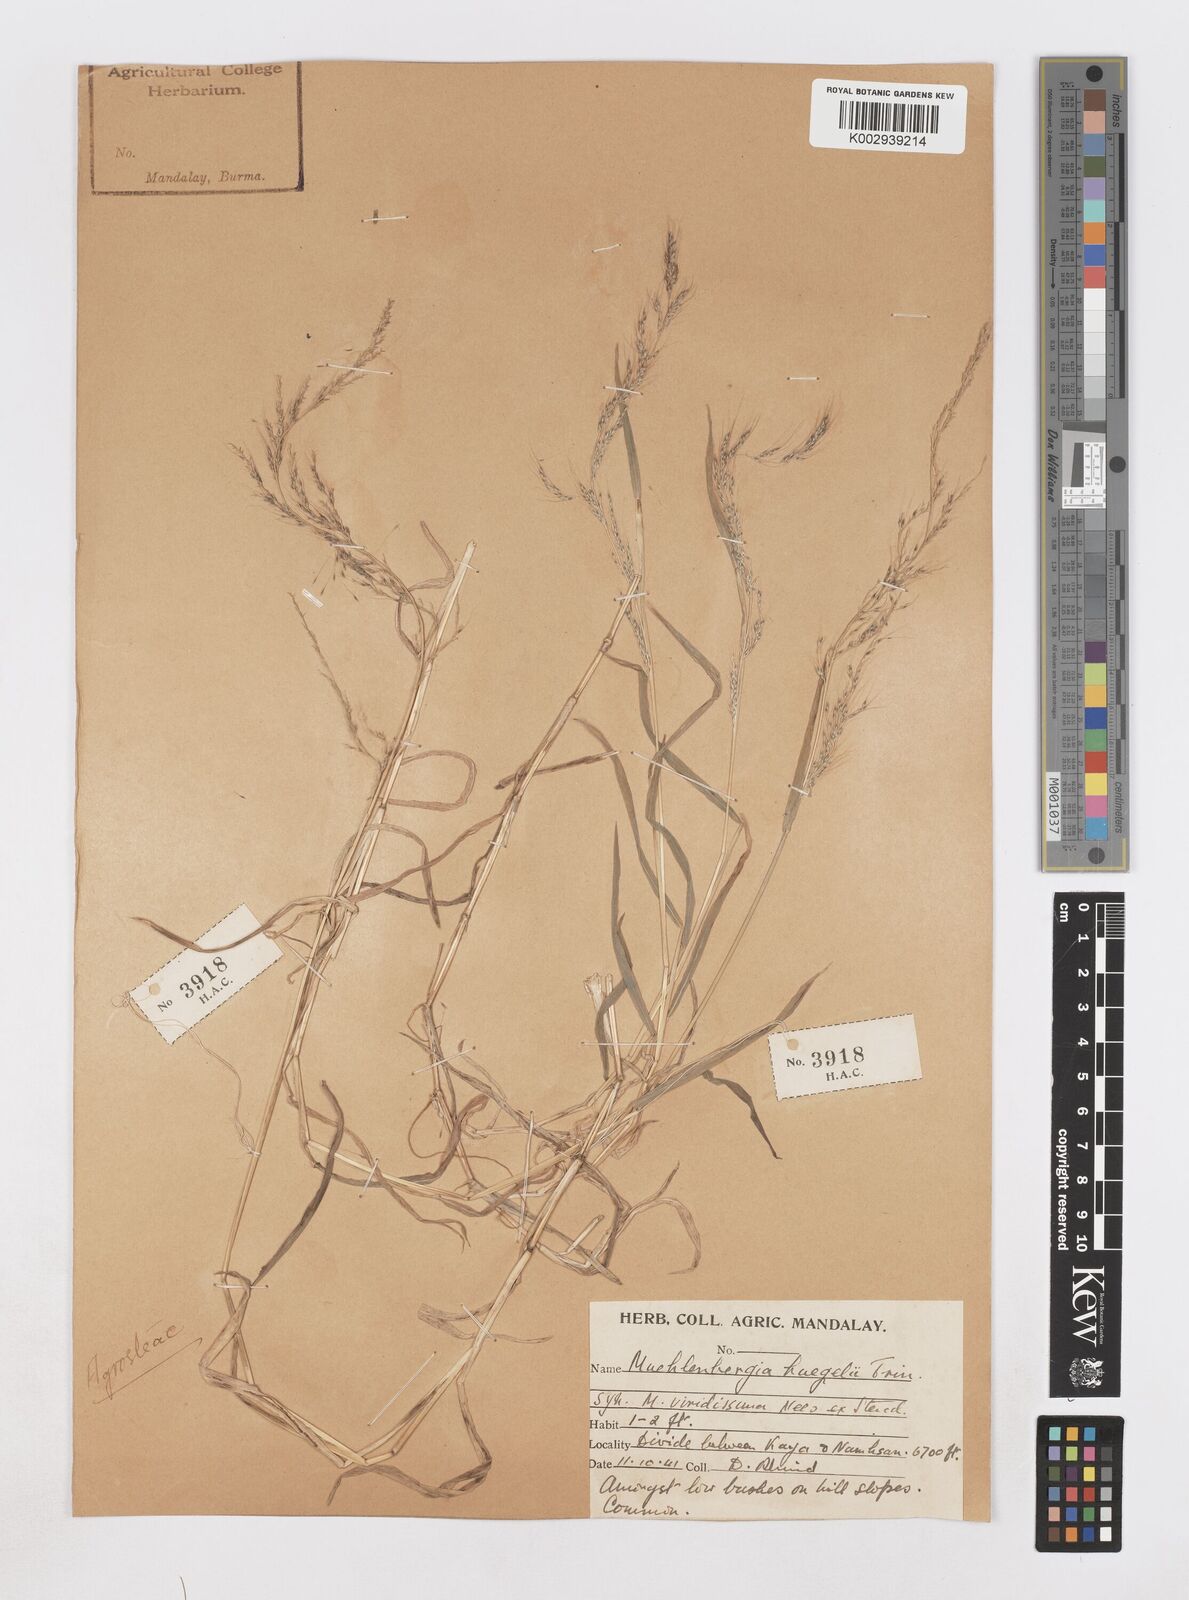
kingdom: Plantae
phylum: Tracheophyta
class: Liliopsida
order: Poales
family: Poaceae
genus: Muhlenbergia
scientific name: Muhlenbergia huegelii
